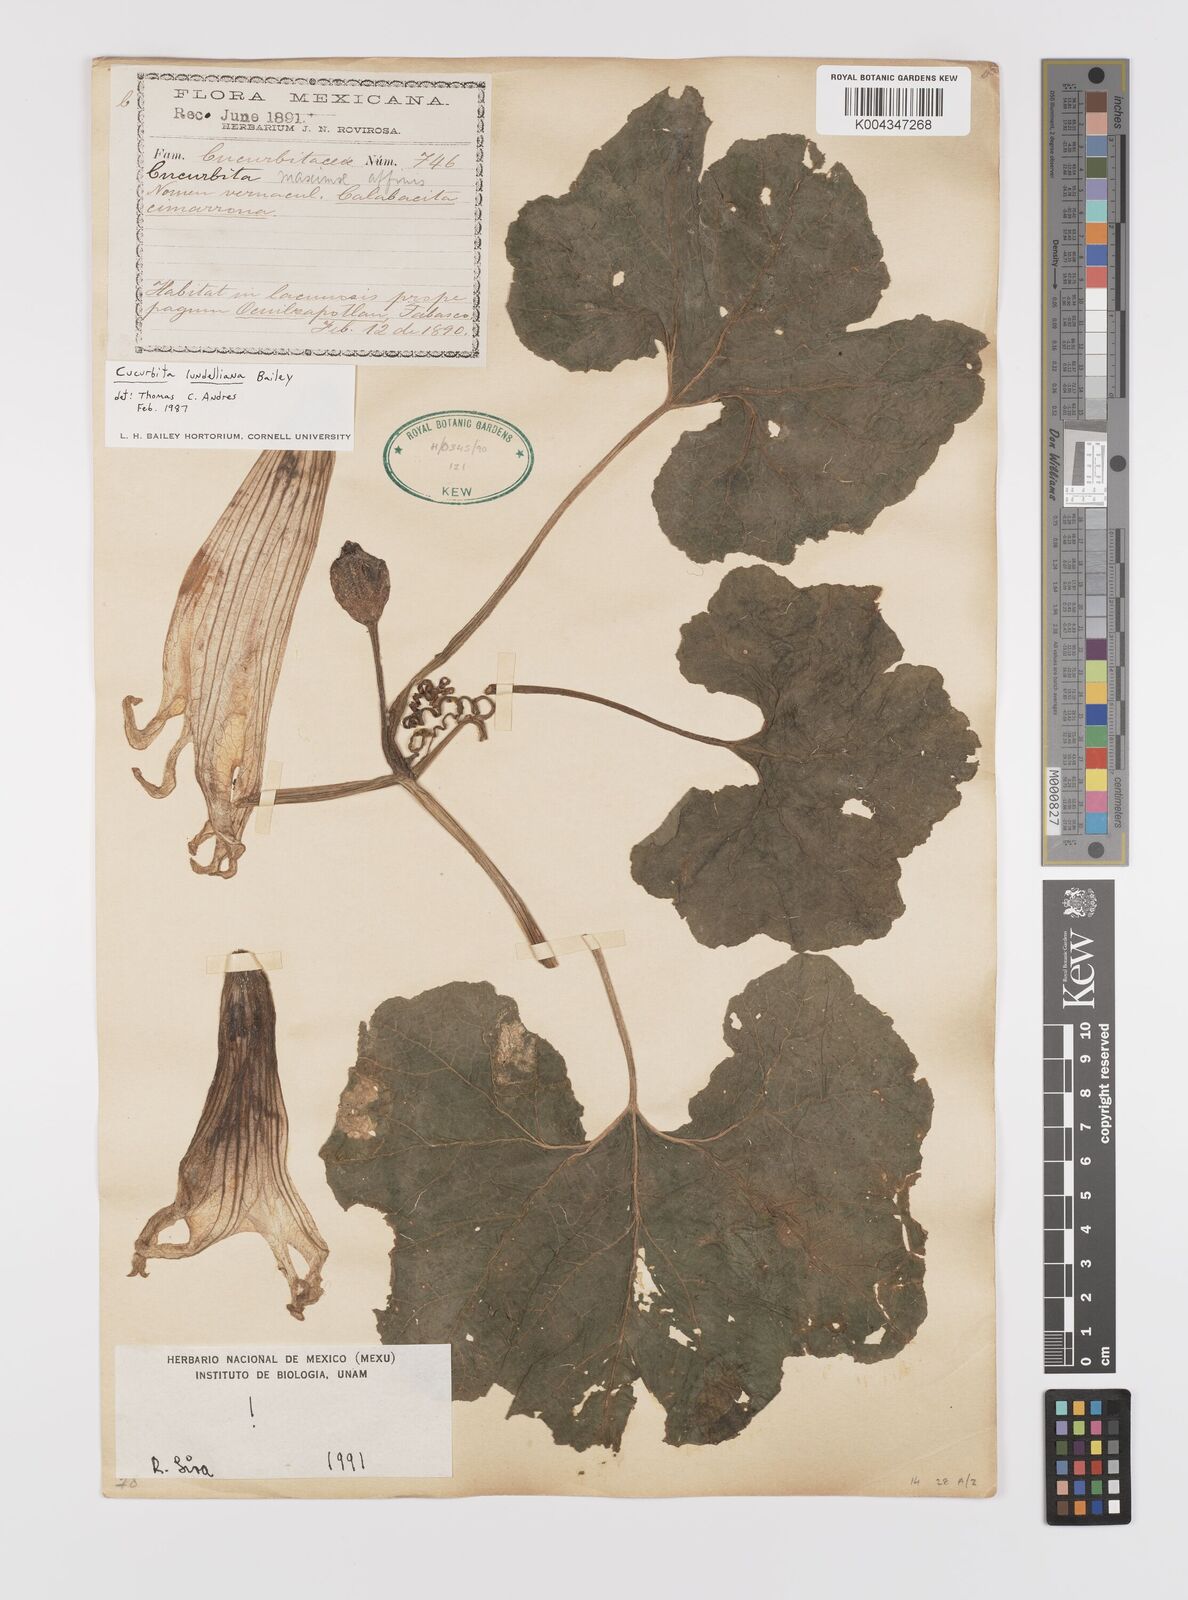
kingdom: Plantae
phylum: Tracheophyta
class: Magnoliopsida
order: Cucurbitales
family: Cucurbitaceae
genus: Cucurbita
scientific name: Cucurbita lundelliana
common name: Bitter pumpkin
